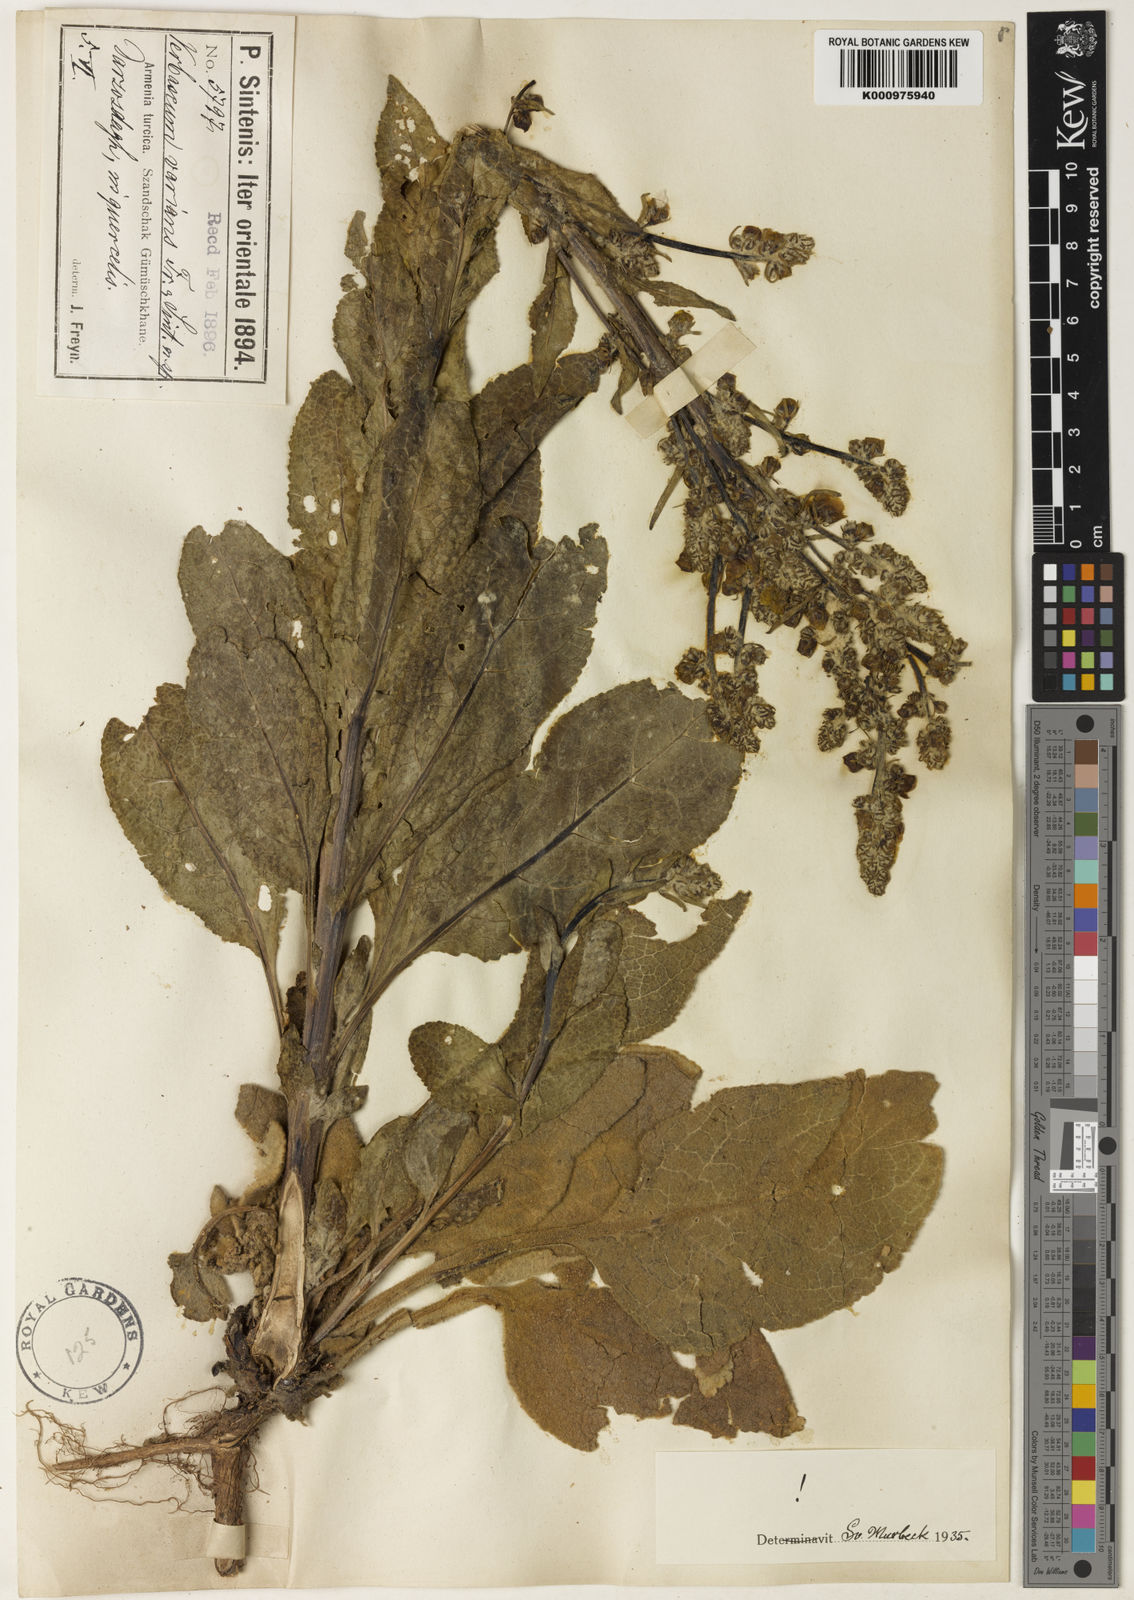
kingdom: Plantae
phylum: Tracheophyta
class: Magnoliopsida
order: Lamiales
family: Scrophulariaceae
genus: Verbascum
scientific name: Verbascum varians
